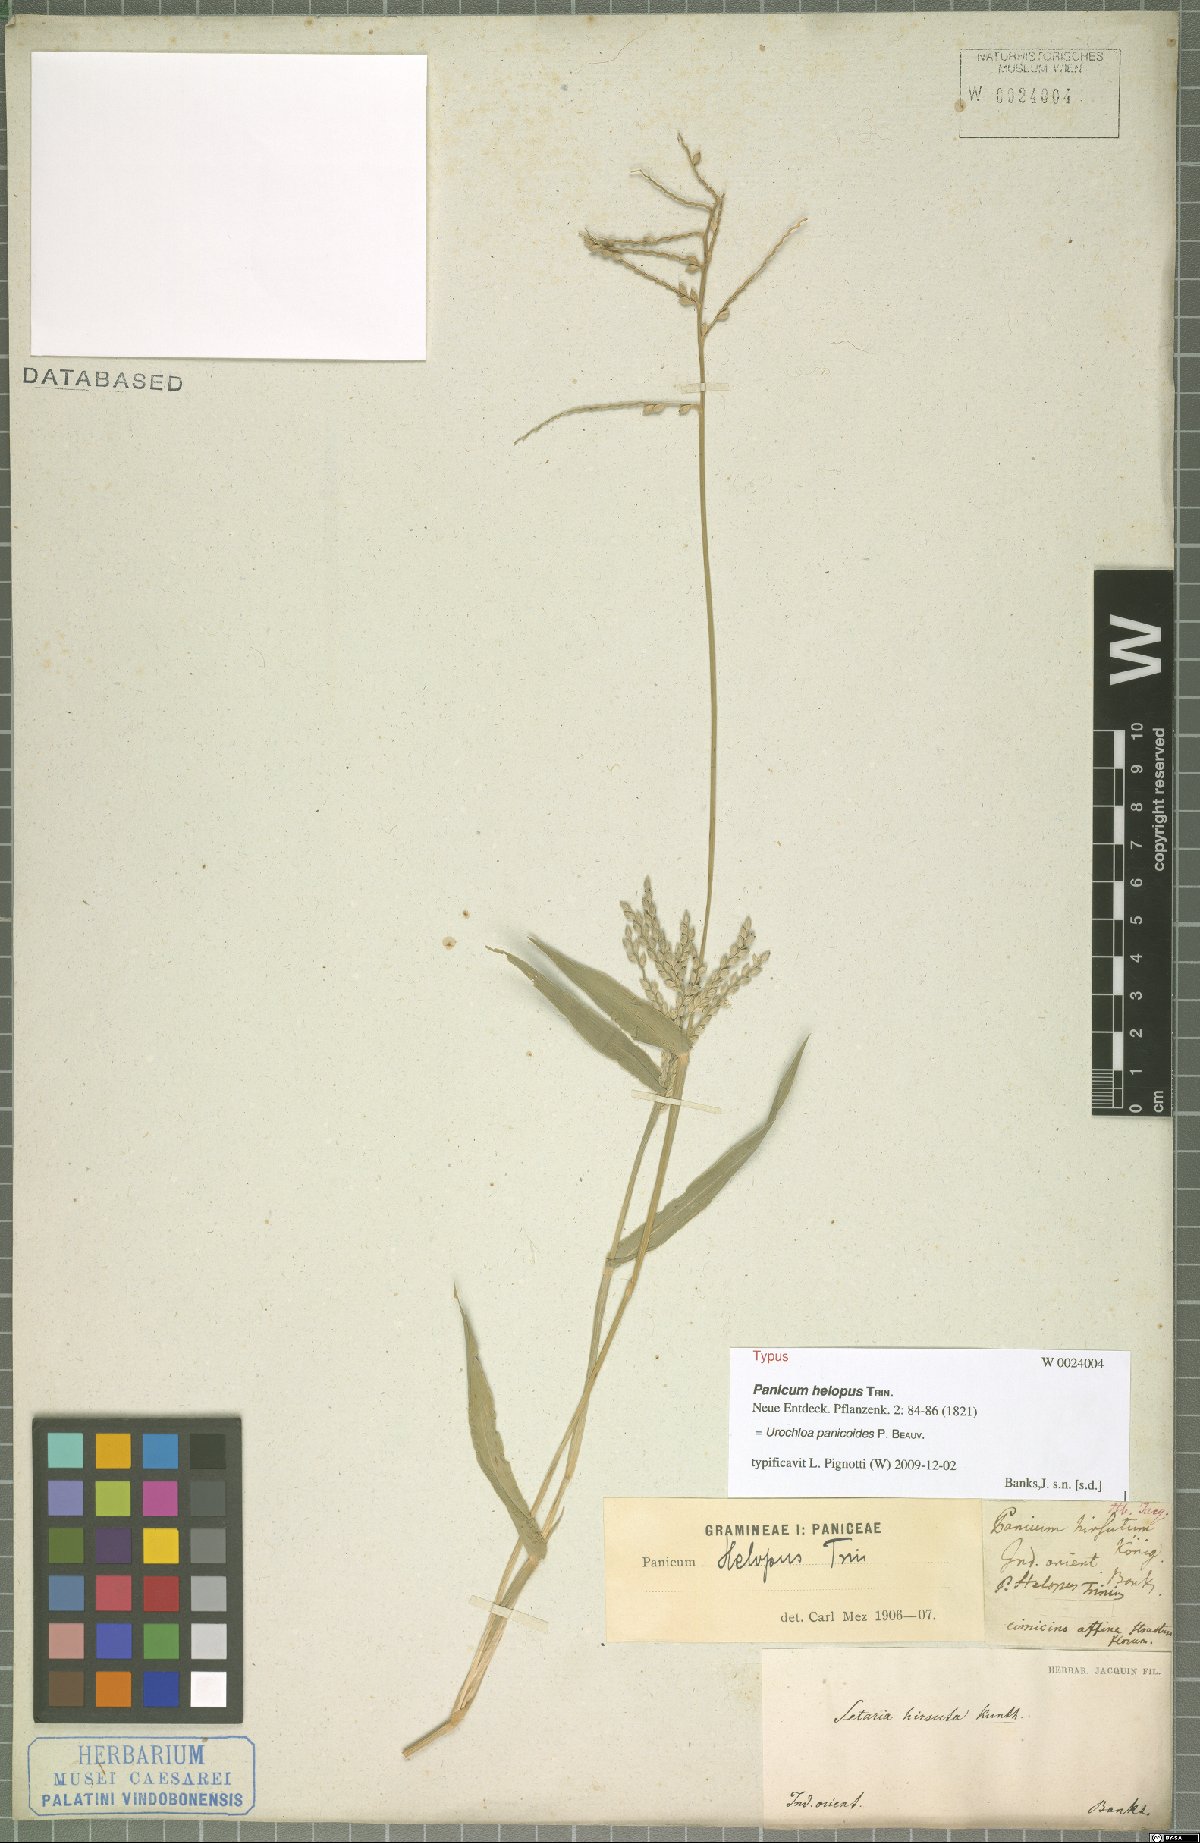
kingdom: Plantae
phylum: Tracheophyta
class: Liliopsida
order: Poales
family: Poaceae
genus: Urochloa
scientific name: Urochloa panicoides
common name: Sharp-flowered signal-grass
